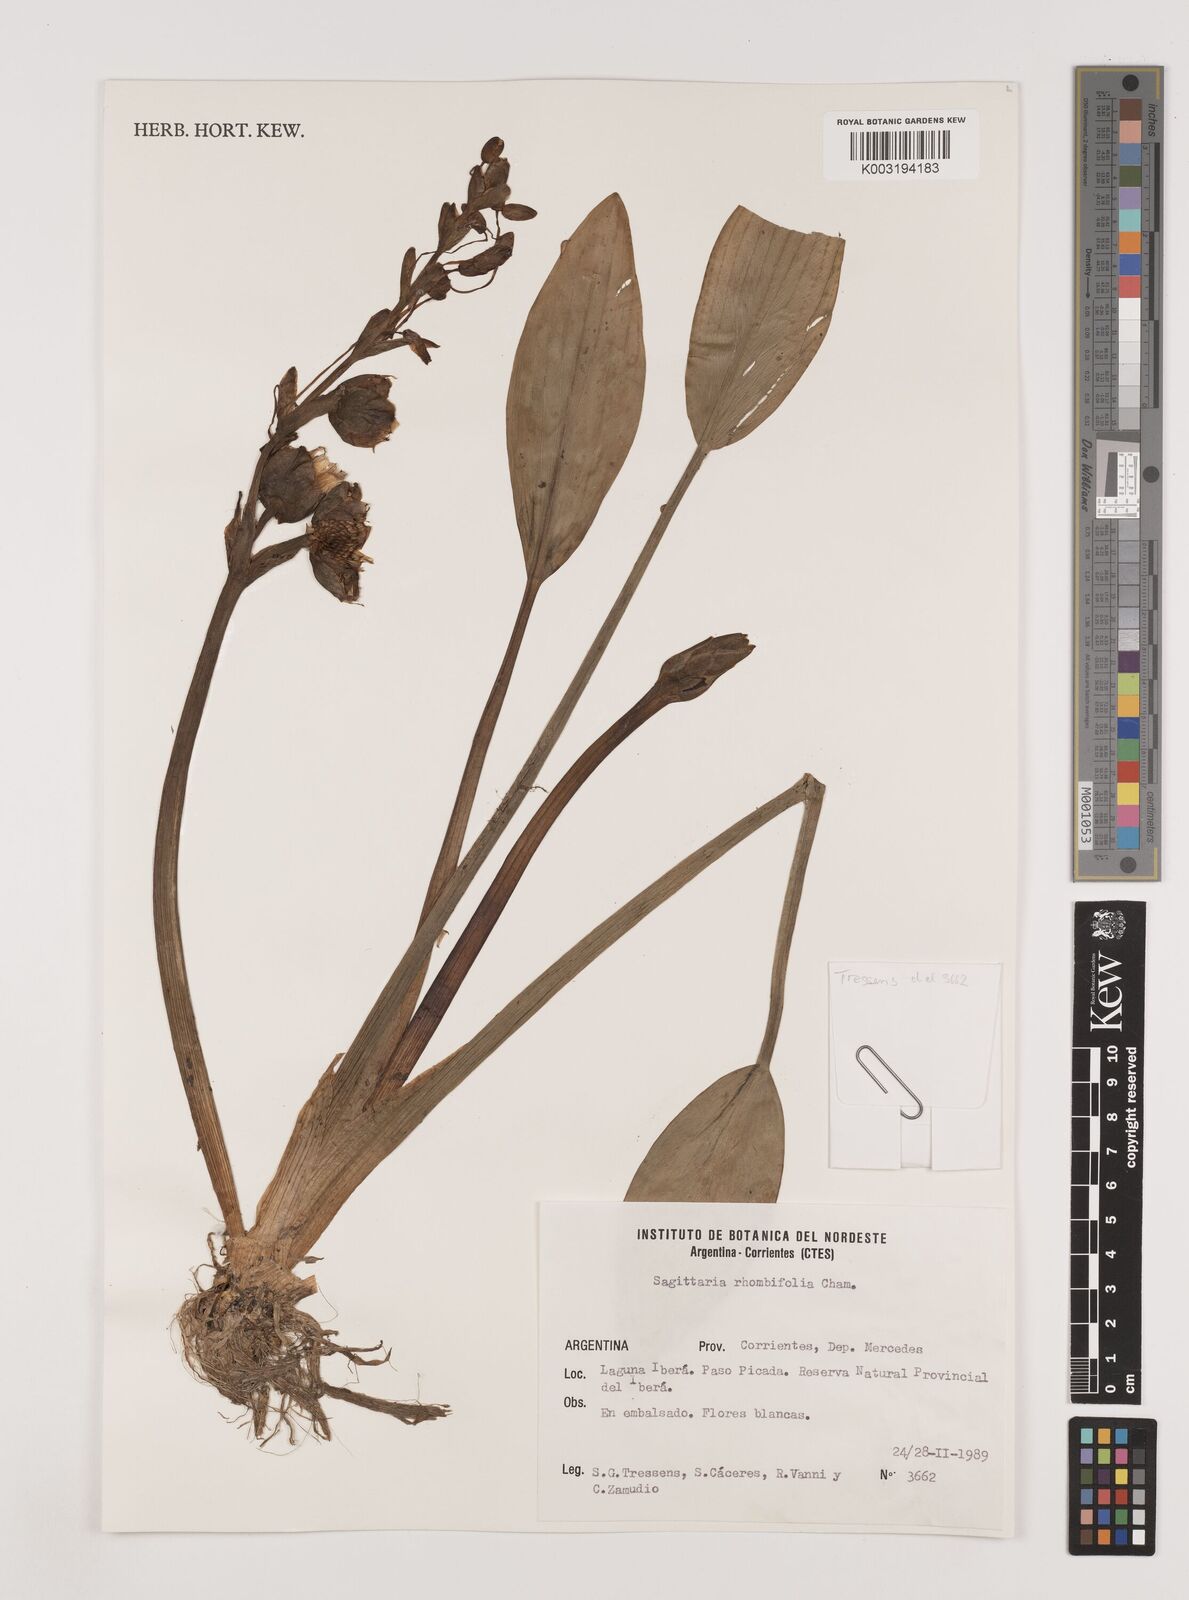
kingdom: Plantae
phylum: Tracheophyta
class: Liliopsida
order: Alismatales
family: Alismataceae
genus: Sagittaria
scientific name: Sagittaria rhombifolia
